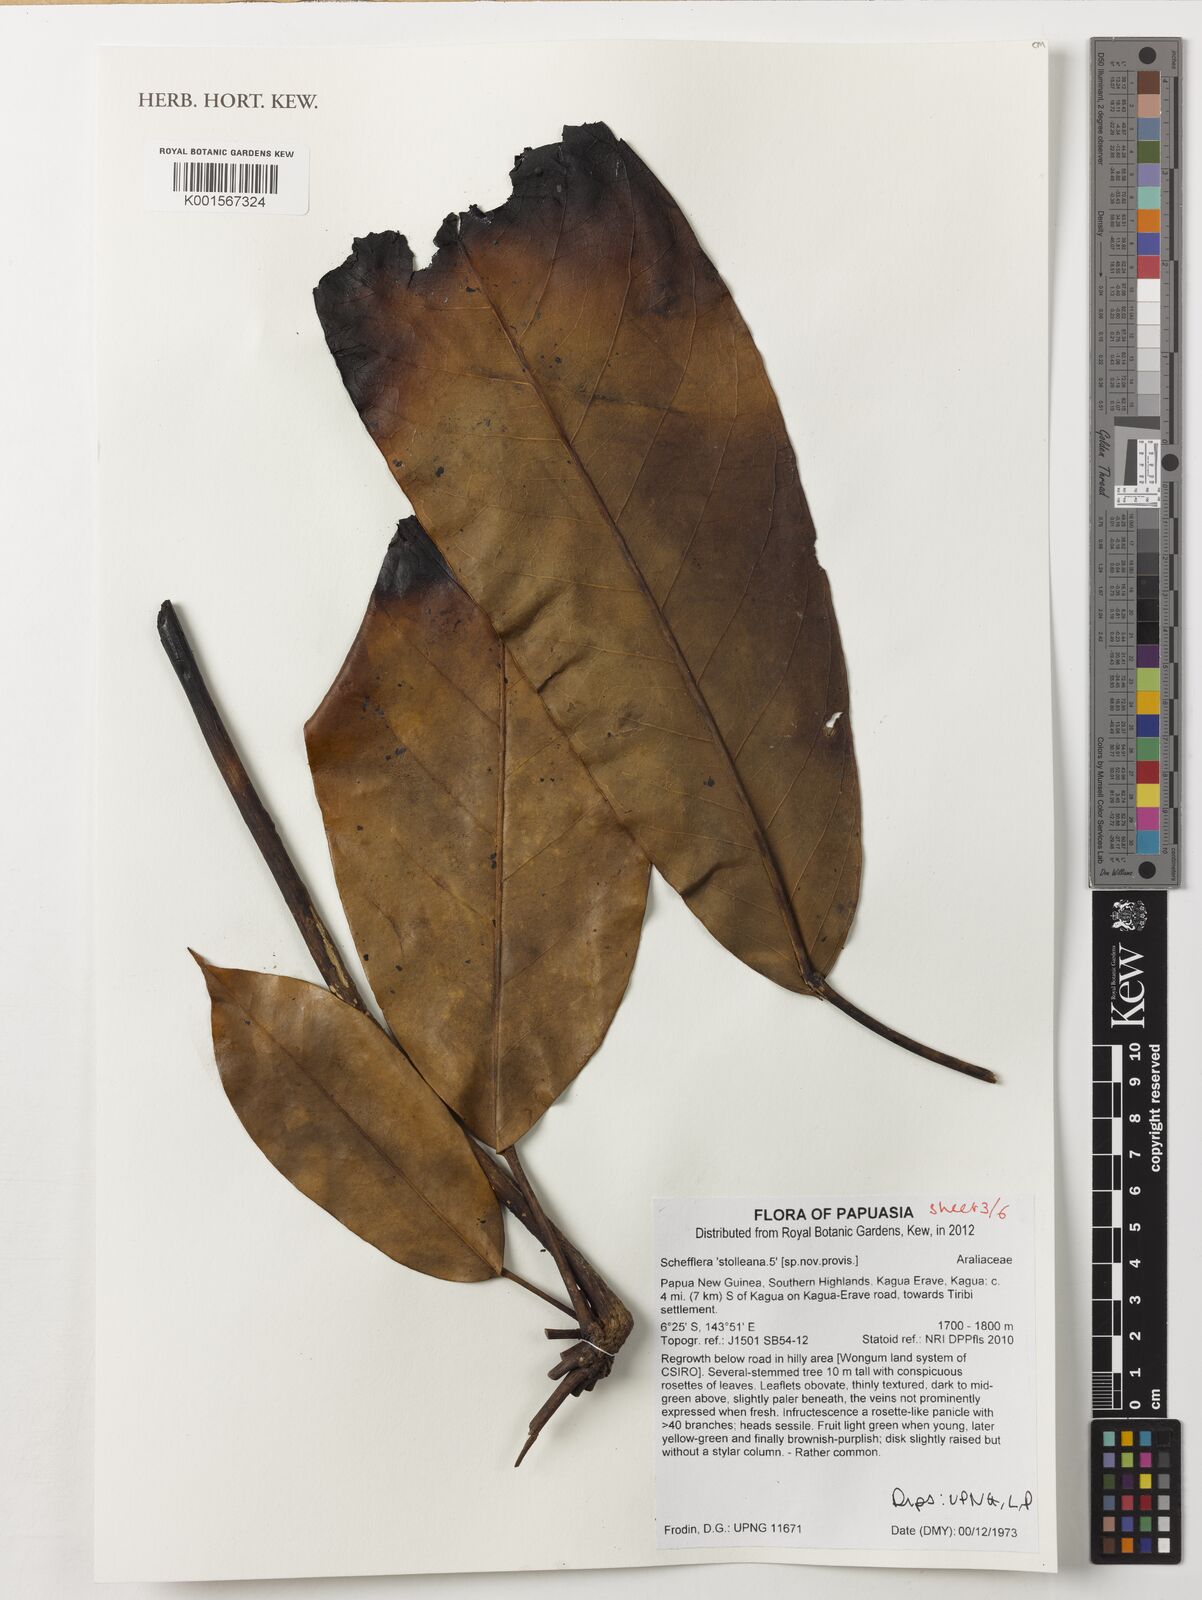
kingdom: Plantae
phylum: Tracheophyta
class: Magnoliopsida
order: Apiales
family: Araliaceae
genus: Heptapleurum
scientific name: Heptapleurum stolleanum
